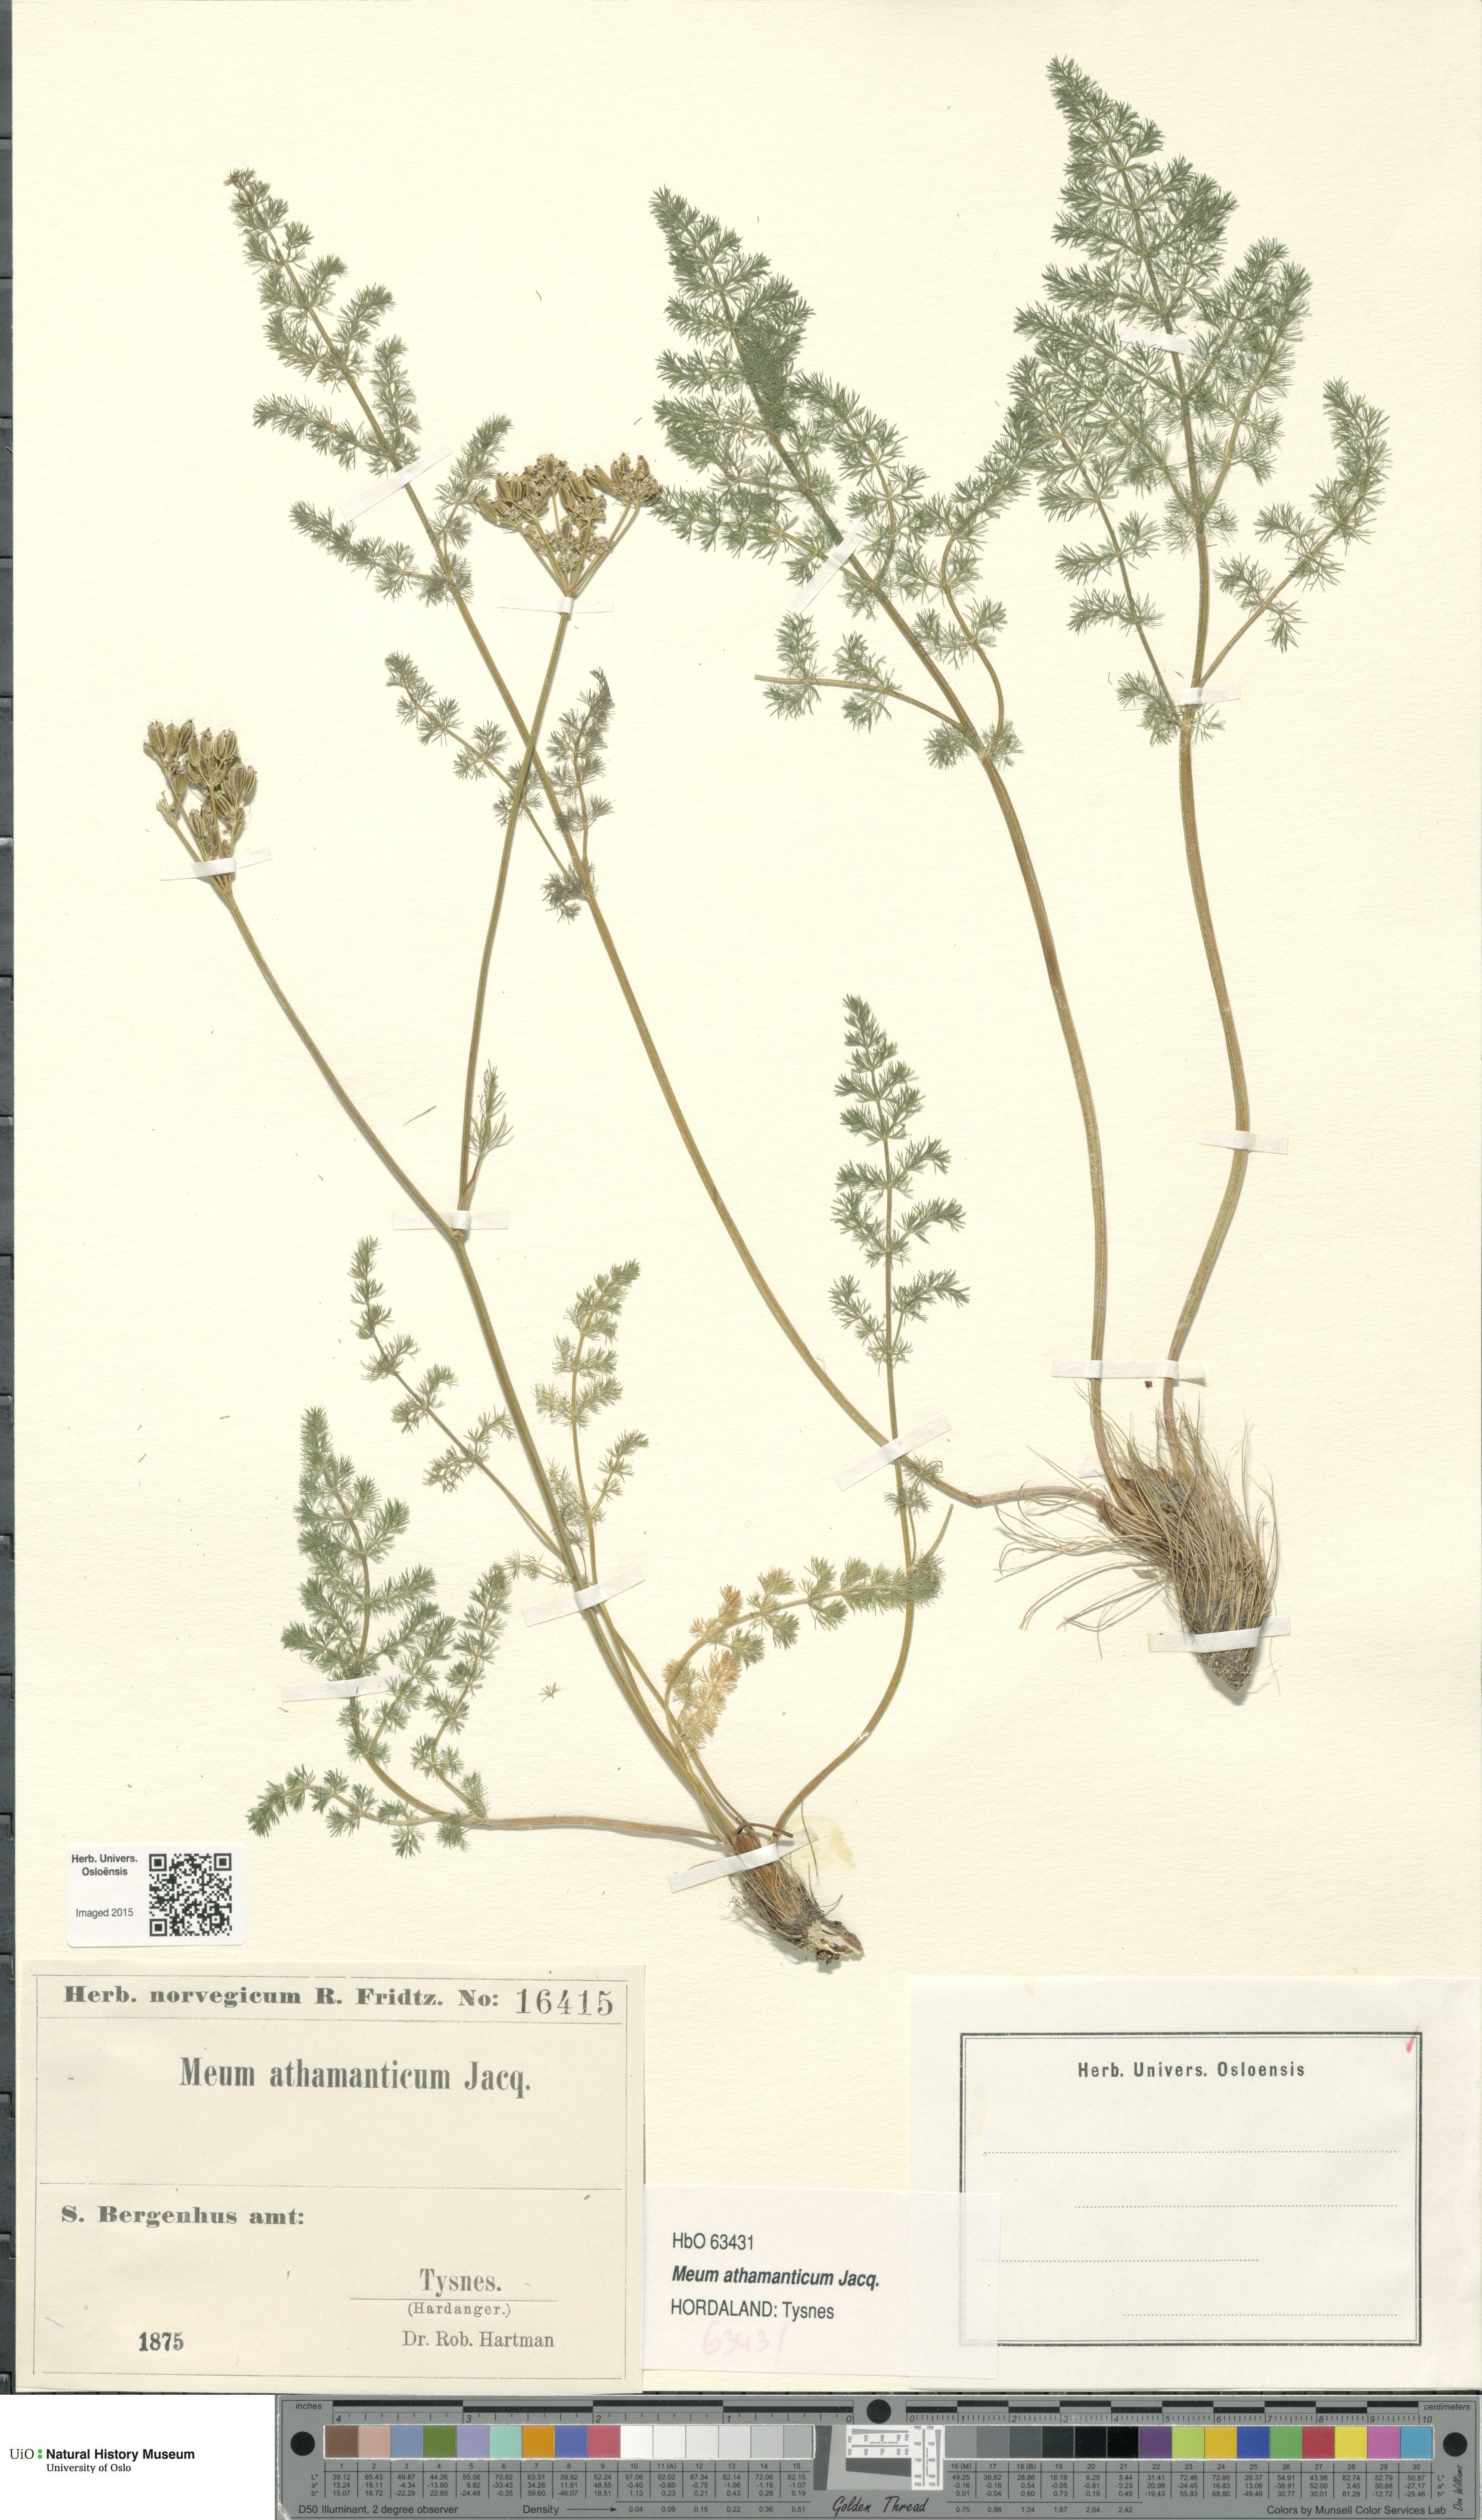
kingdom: Plantae
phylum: Tracheophyta
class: Magnoliopsida
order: Apiales
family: Apiaceae
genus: Meum
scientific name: Meum athamanticum
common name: Spignel
